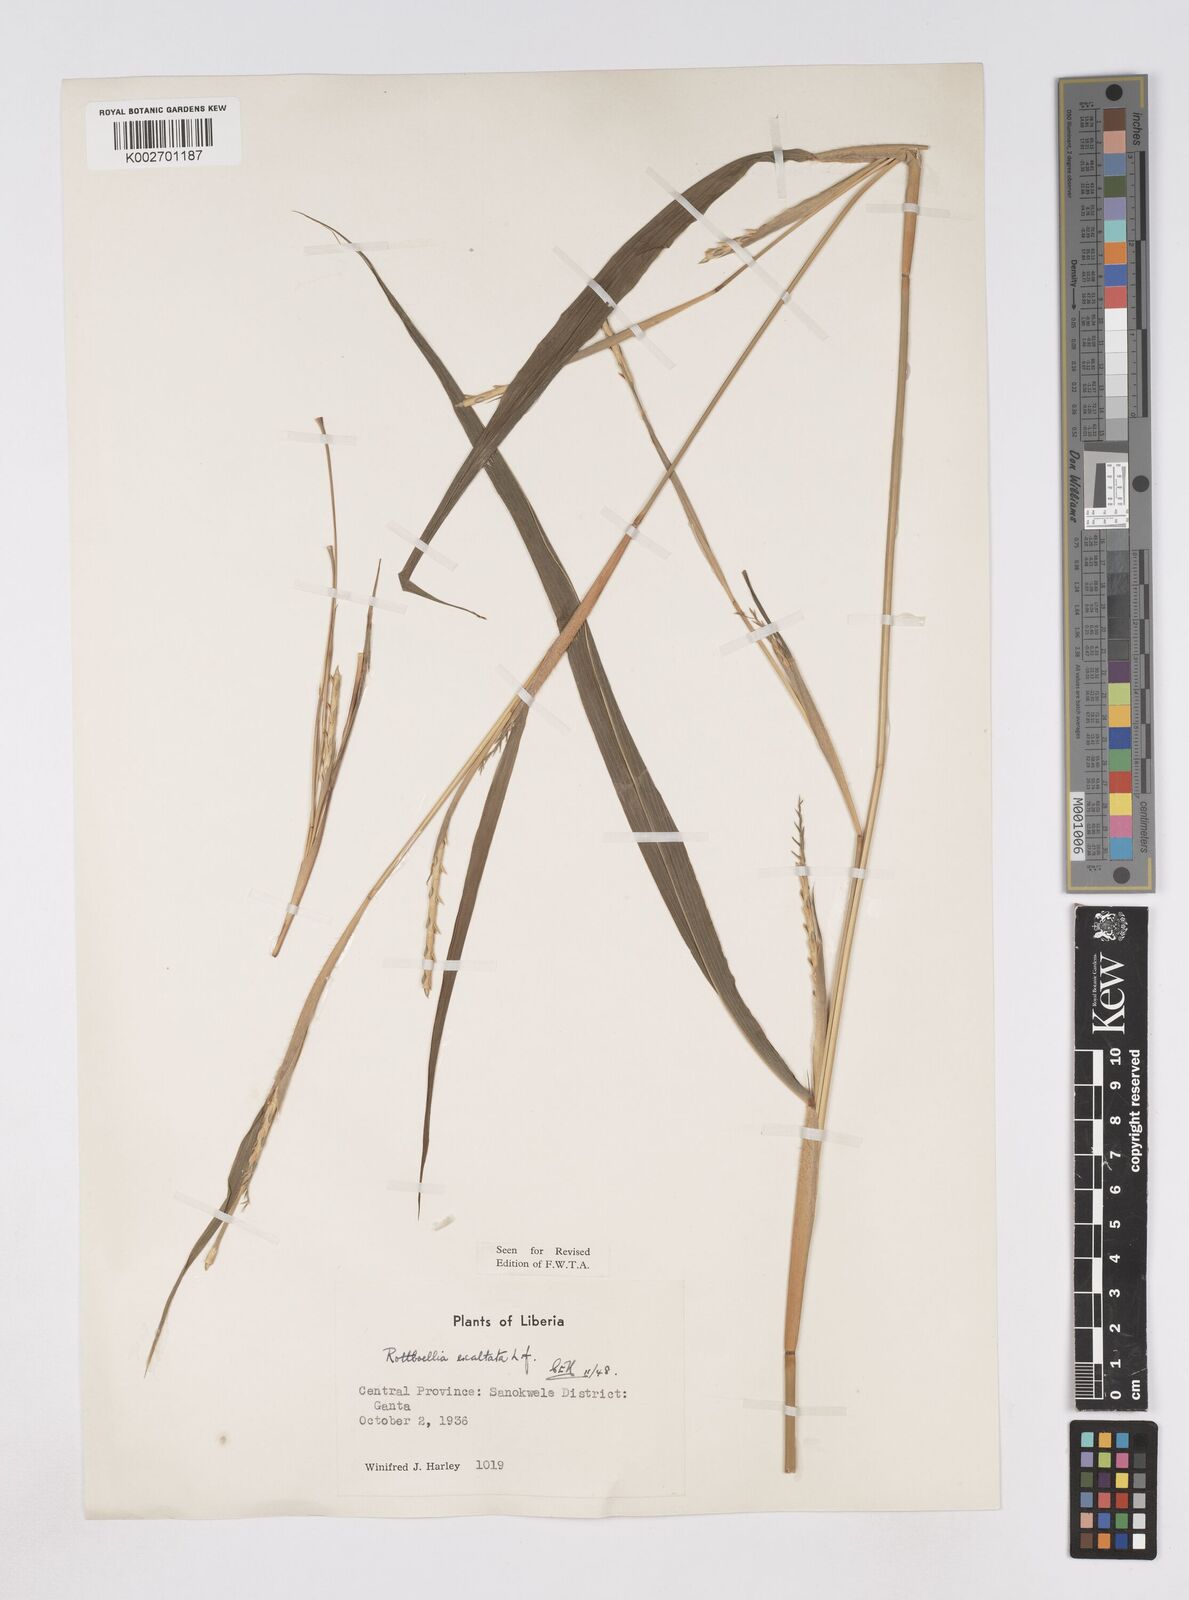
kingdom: Plantae
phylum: Tracheophyta
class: Liliopsida
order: Poales
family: Poaceae
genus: Ophiuros
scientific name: Ophiuros exaltatus
